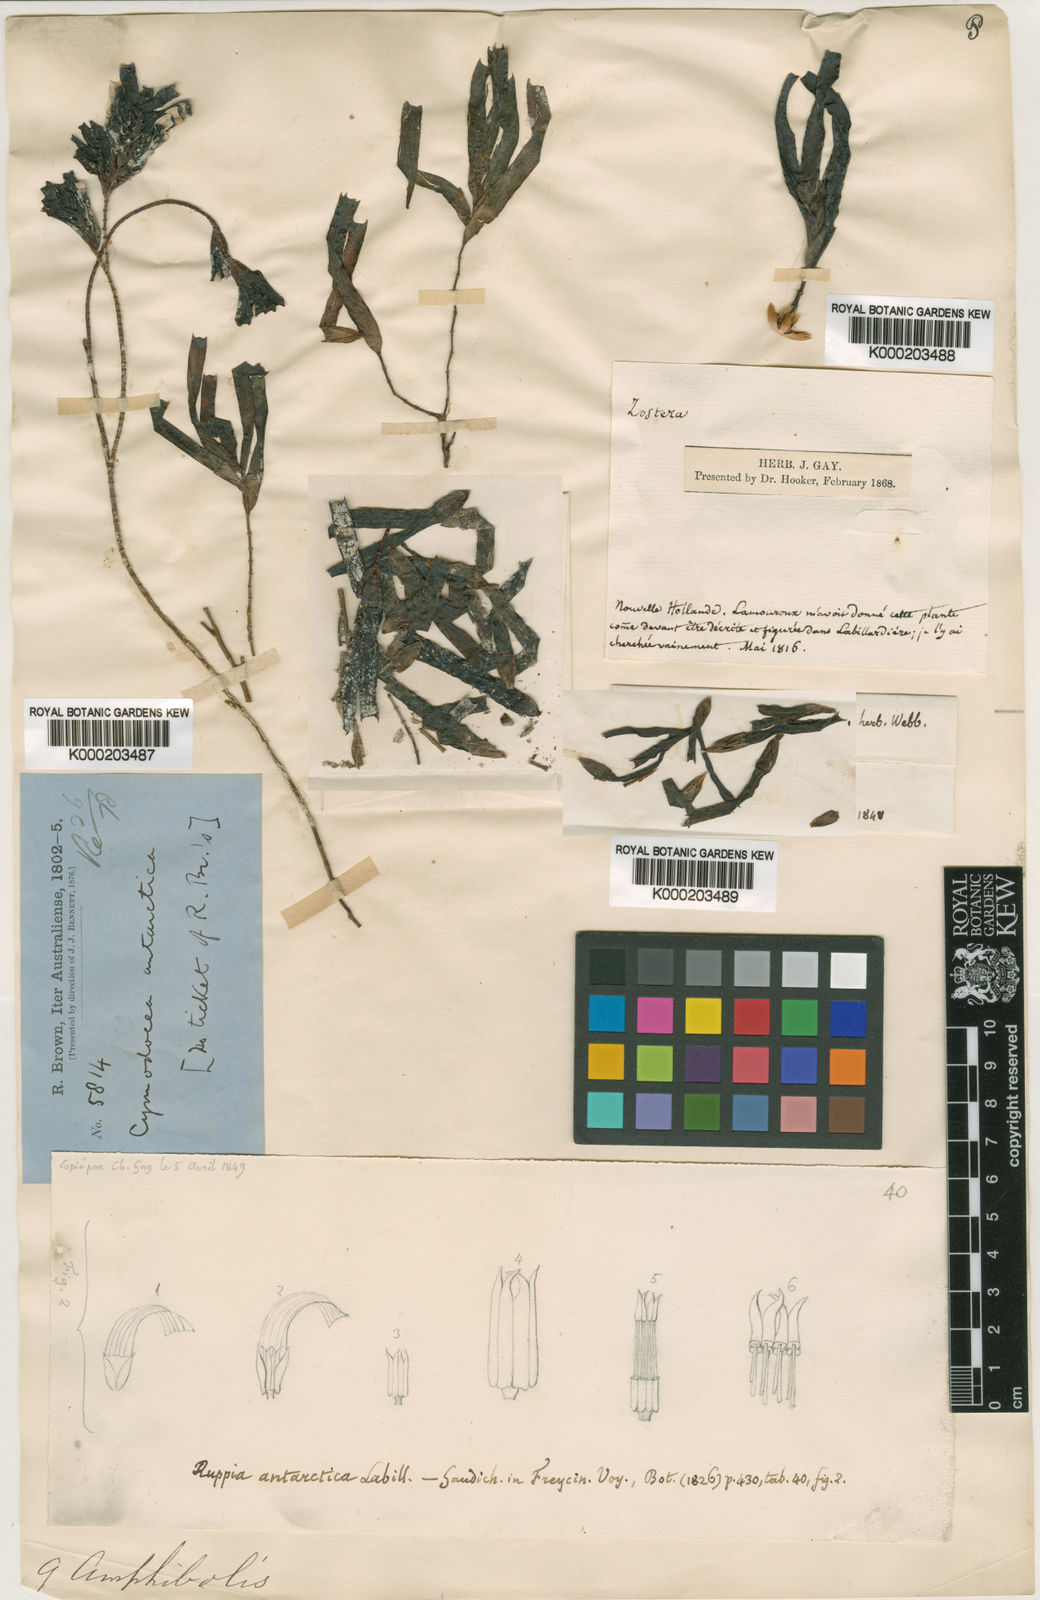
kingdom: Plantae
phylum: Tracheophyta
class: Liliopsida
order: Alismatales
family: Cymodoceaceae
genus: Amphibolis
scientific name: Amphibolis antarctica
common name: Species code: aa
